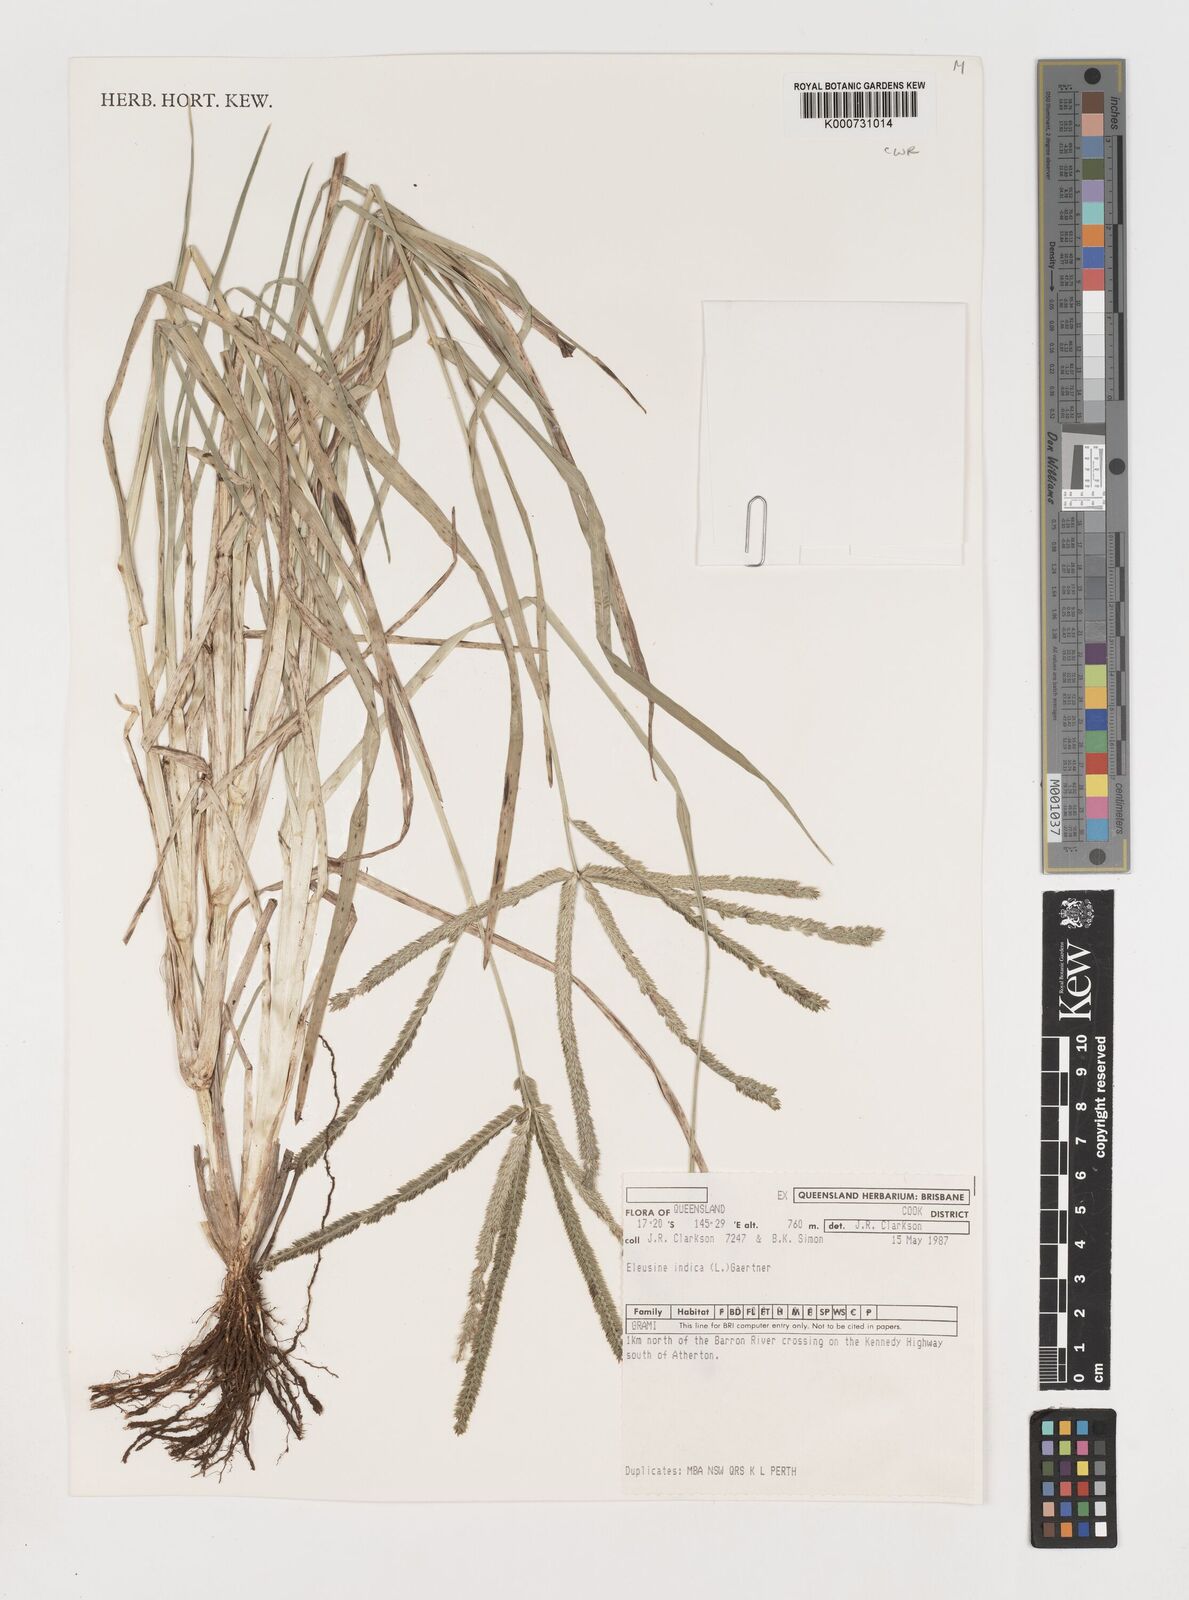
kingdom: Plantae
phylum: Tracheophyta
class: Liliopsida
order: Poales
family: Poaceae
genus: Eleusine
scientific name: Eleusine indica
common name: Yard-grass
